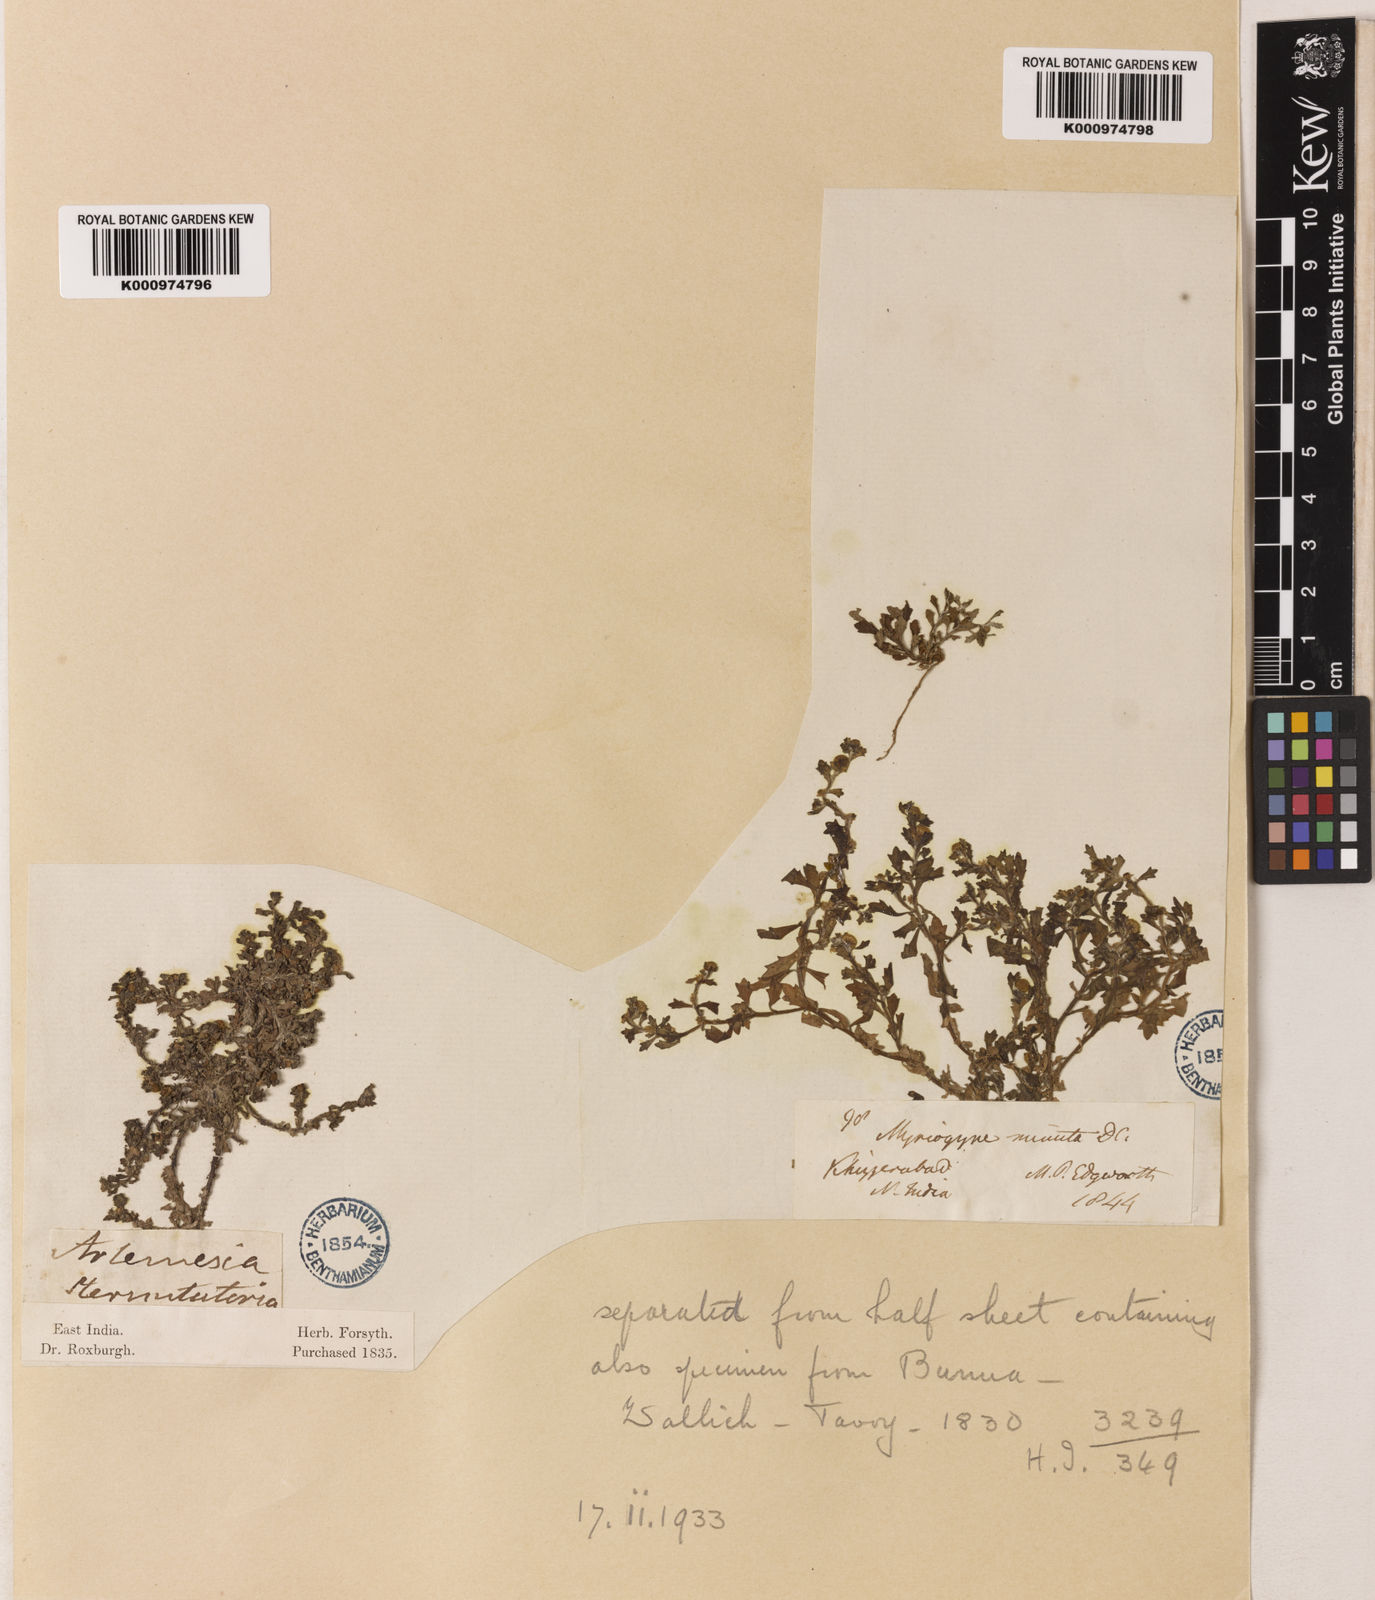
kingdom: Plantae
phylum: Tracheophyta
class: Magnoliopsida
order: Asterales
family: Asteraceae
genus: Centipeda
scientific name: Centipeda minima
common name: Spreading sneezeweed
